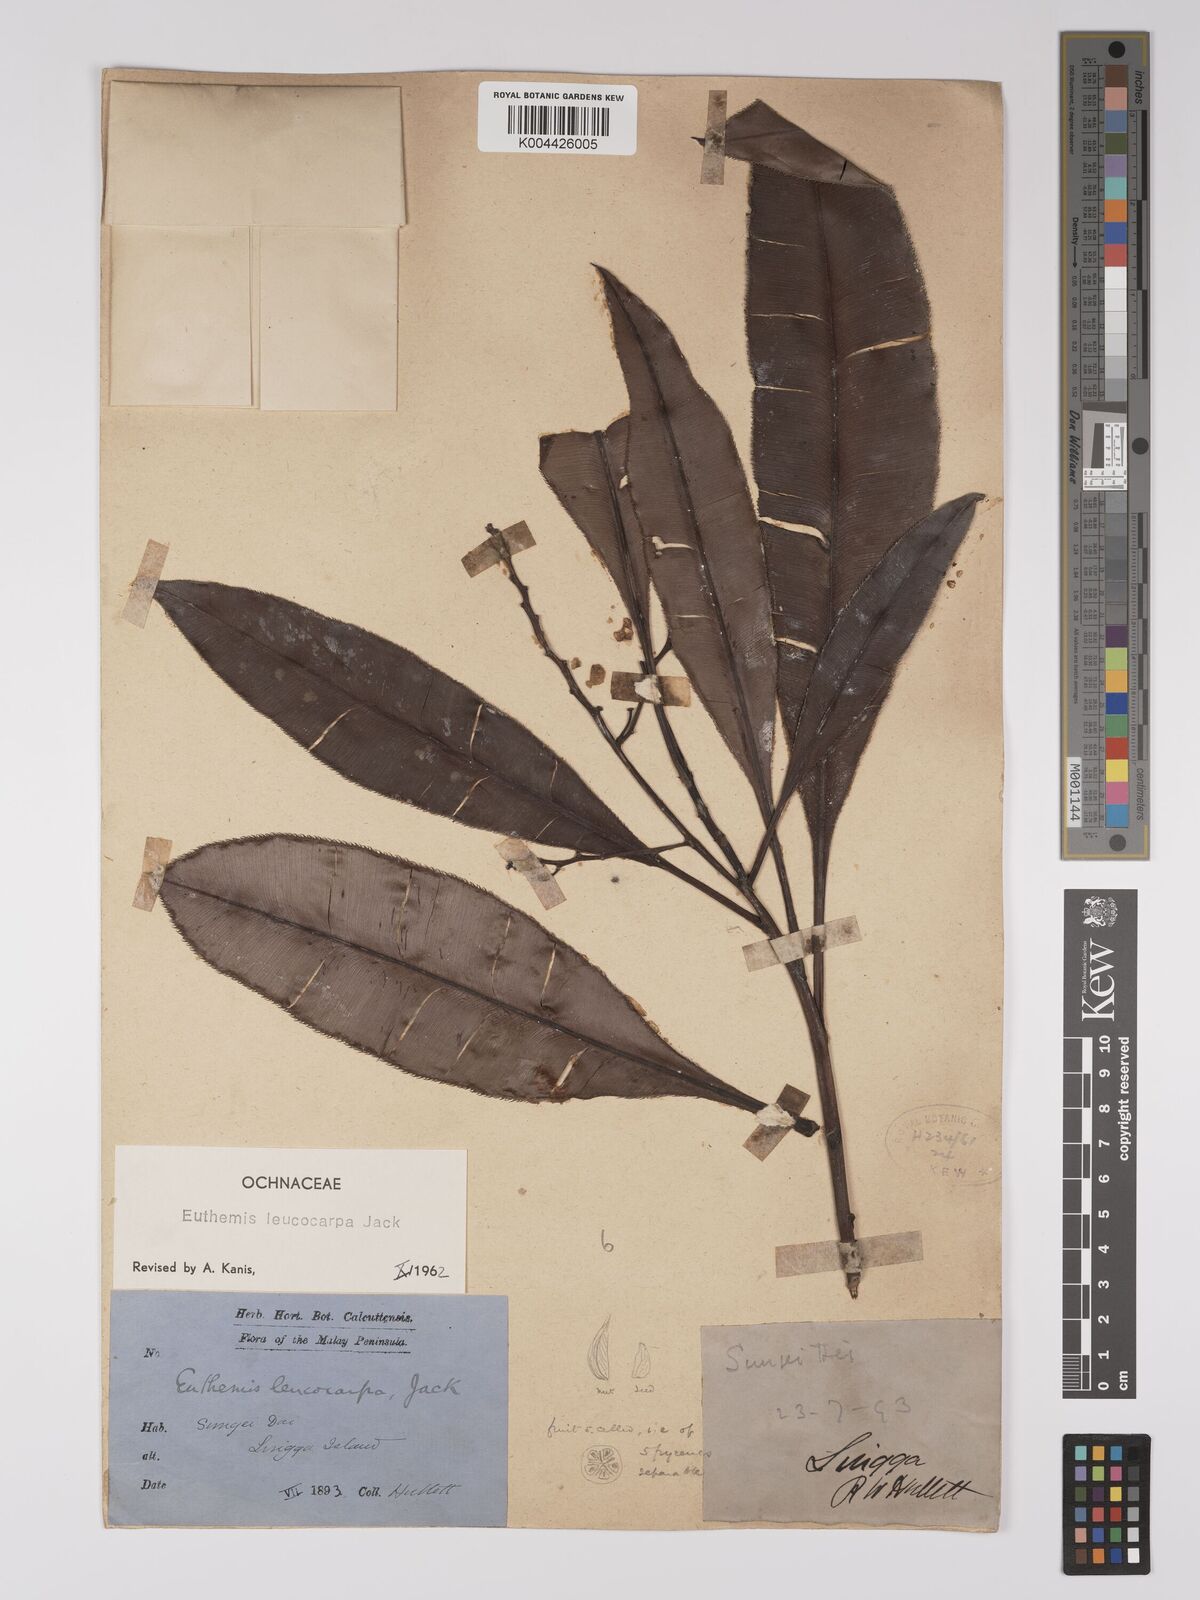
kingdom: Plantae
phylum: Tracheophyta
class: Magnoliopsida
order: Malpighiales
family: Ochnaceae
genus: Euthemis
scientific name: Euthemis leucocarpa
